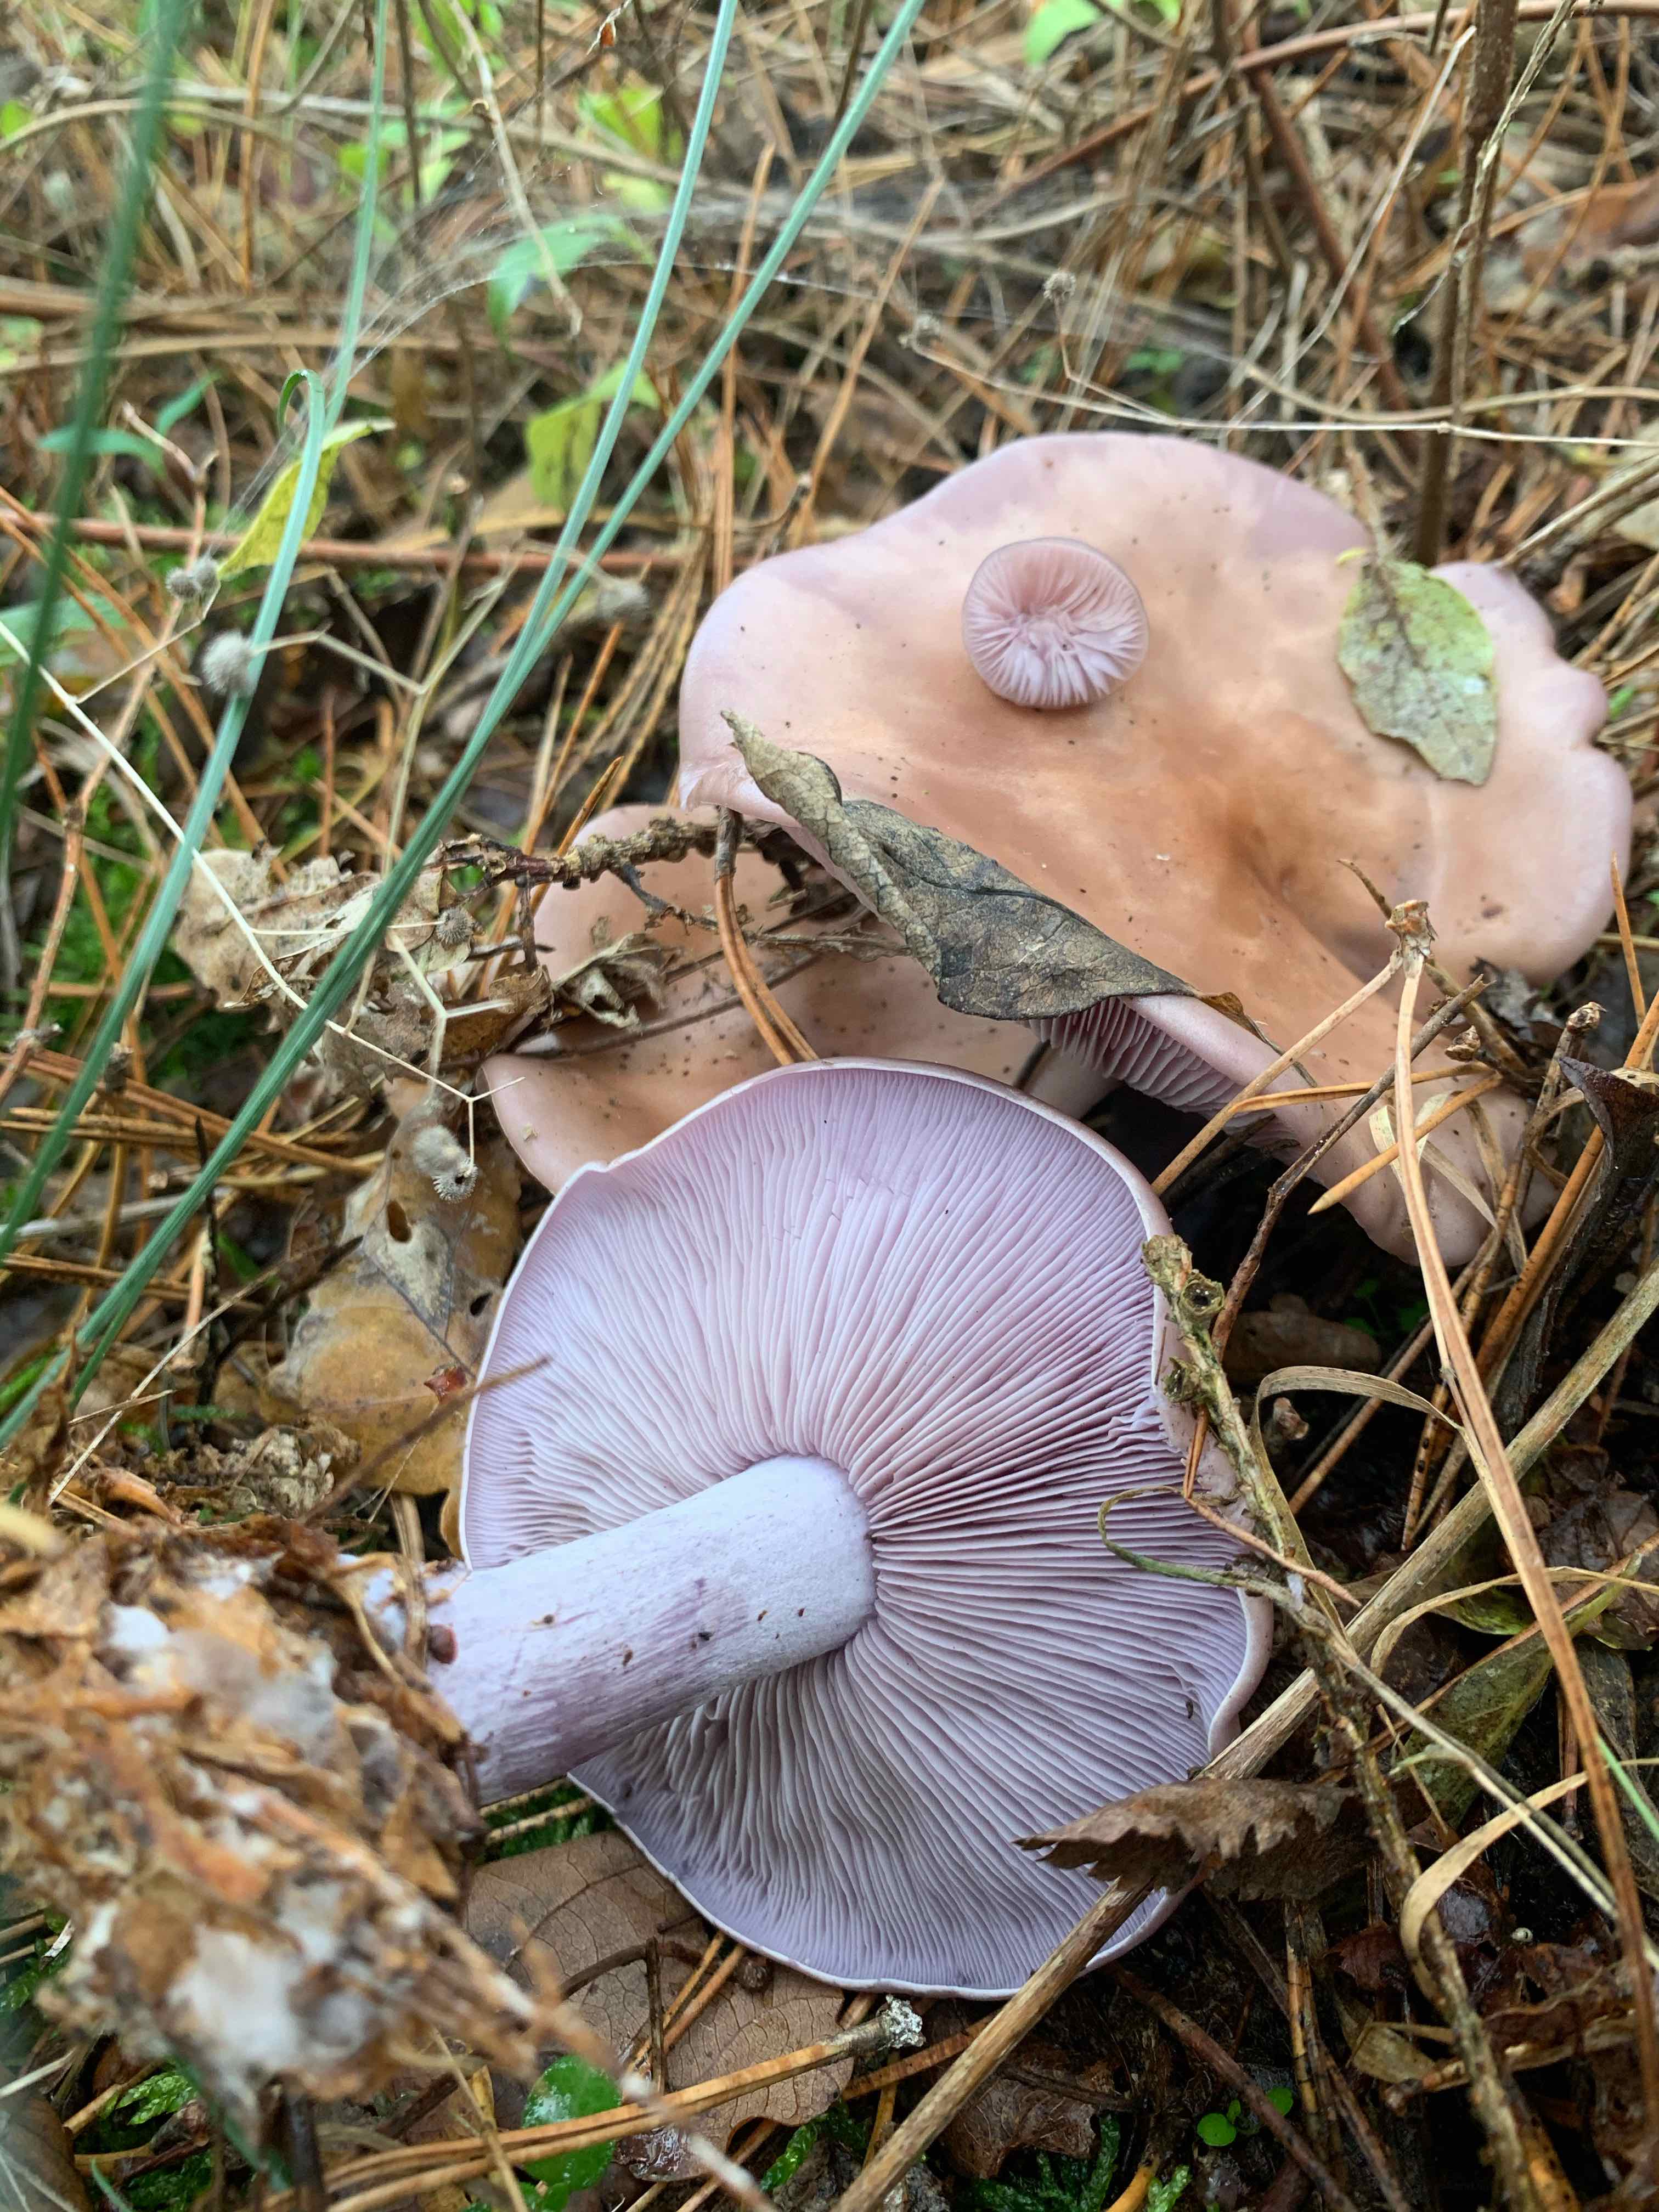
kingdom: Fungi
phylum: Basidiomycota
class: Agaricomycetes
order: Agaricales
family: Tricholomataceae
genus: Lepista
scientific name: Lepista nuda
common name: violet hekseringshat
